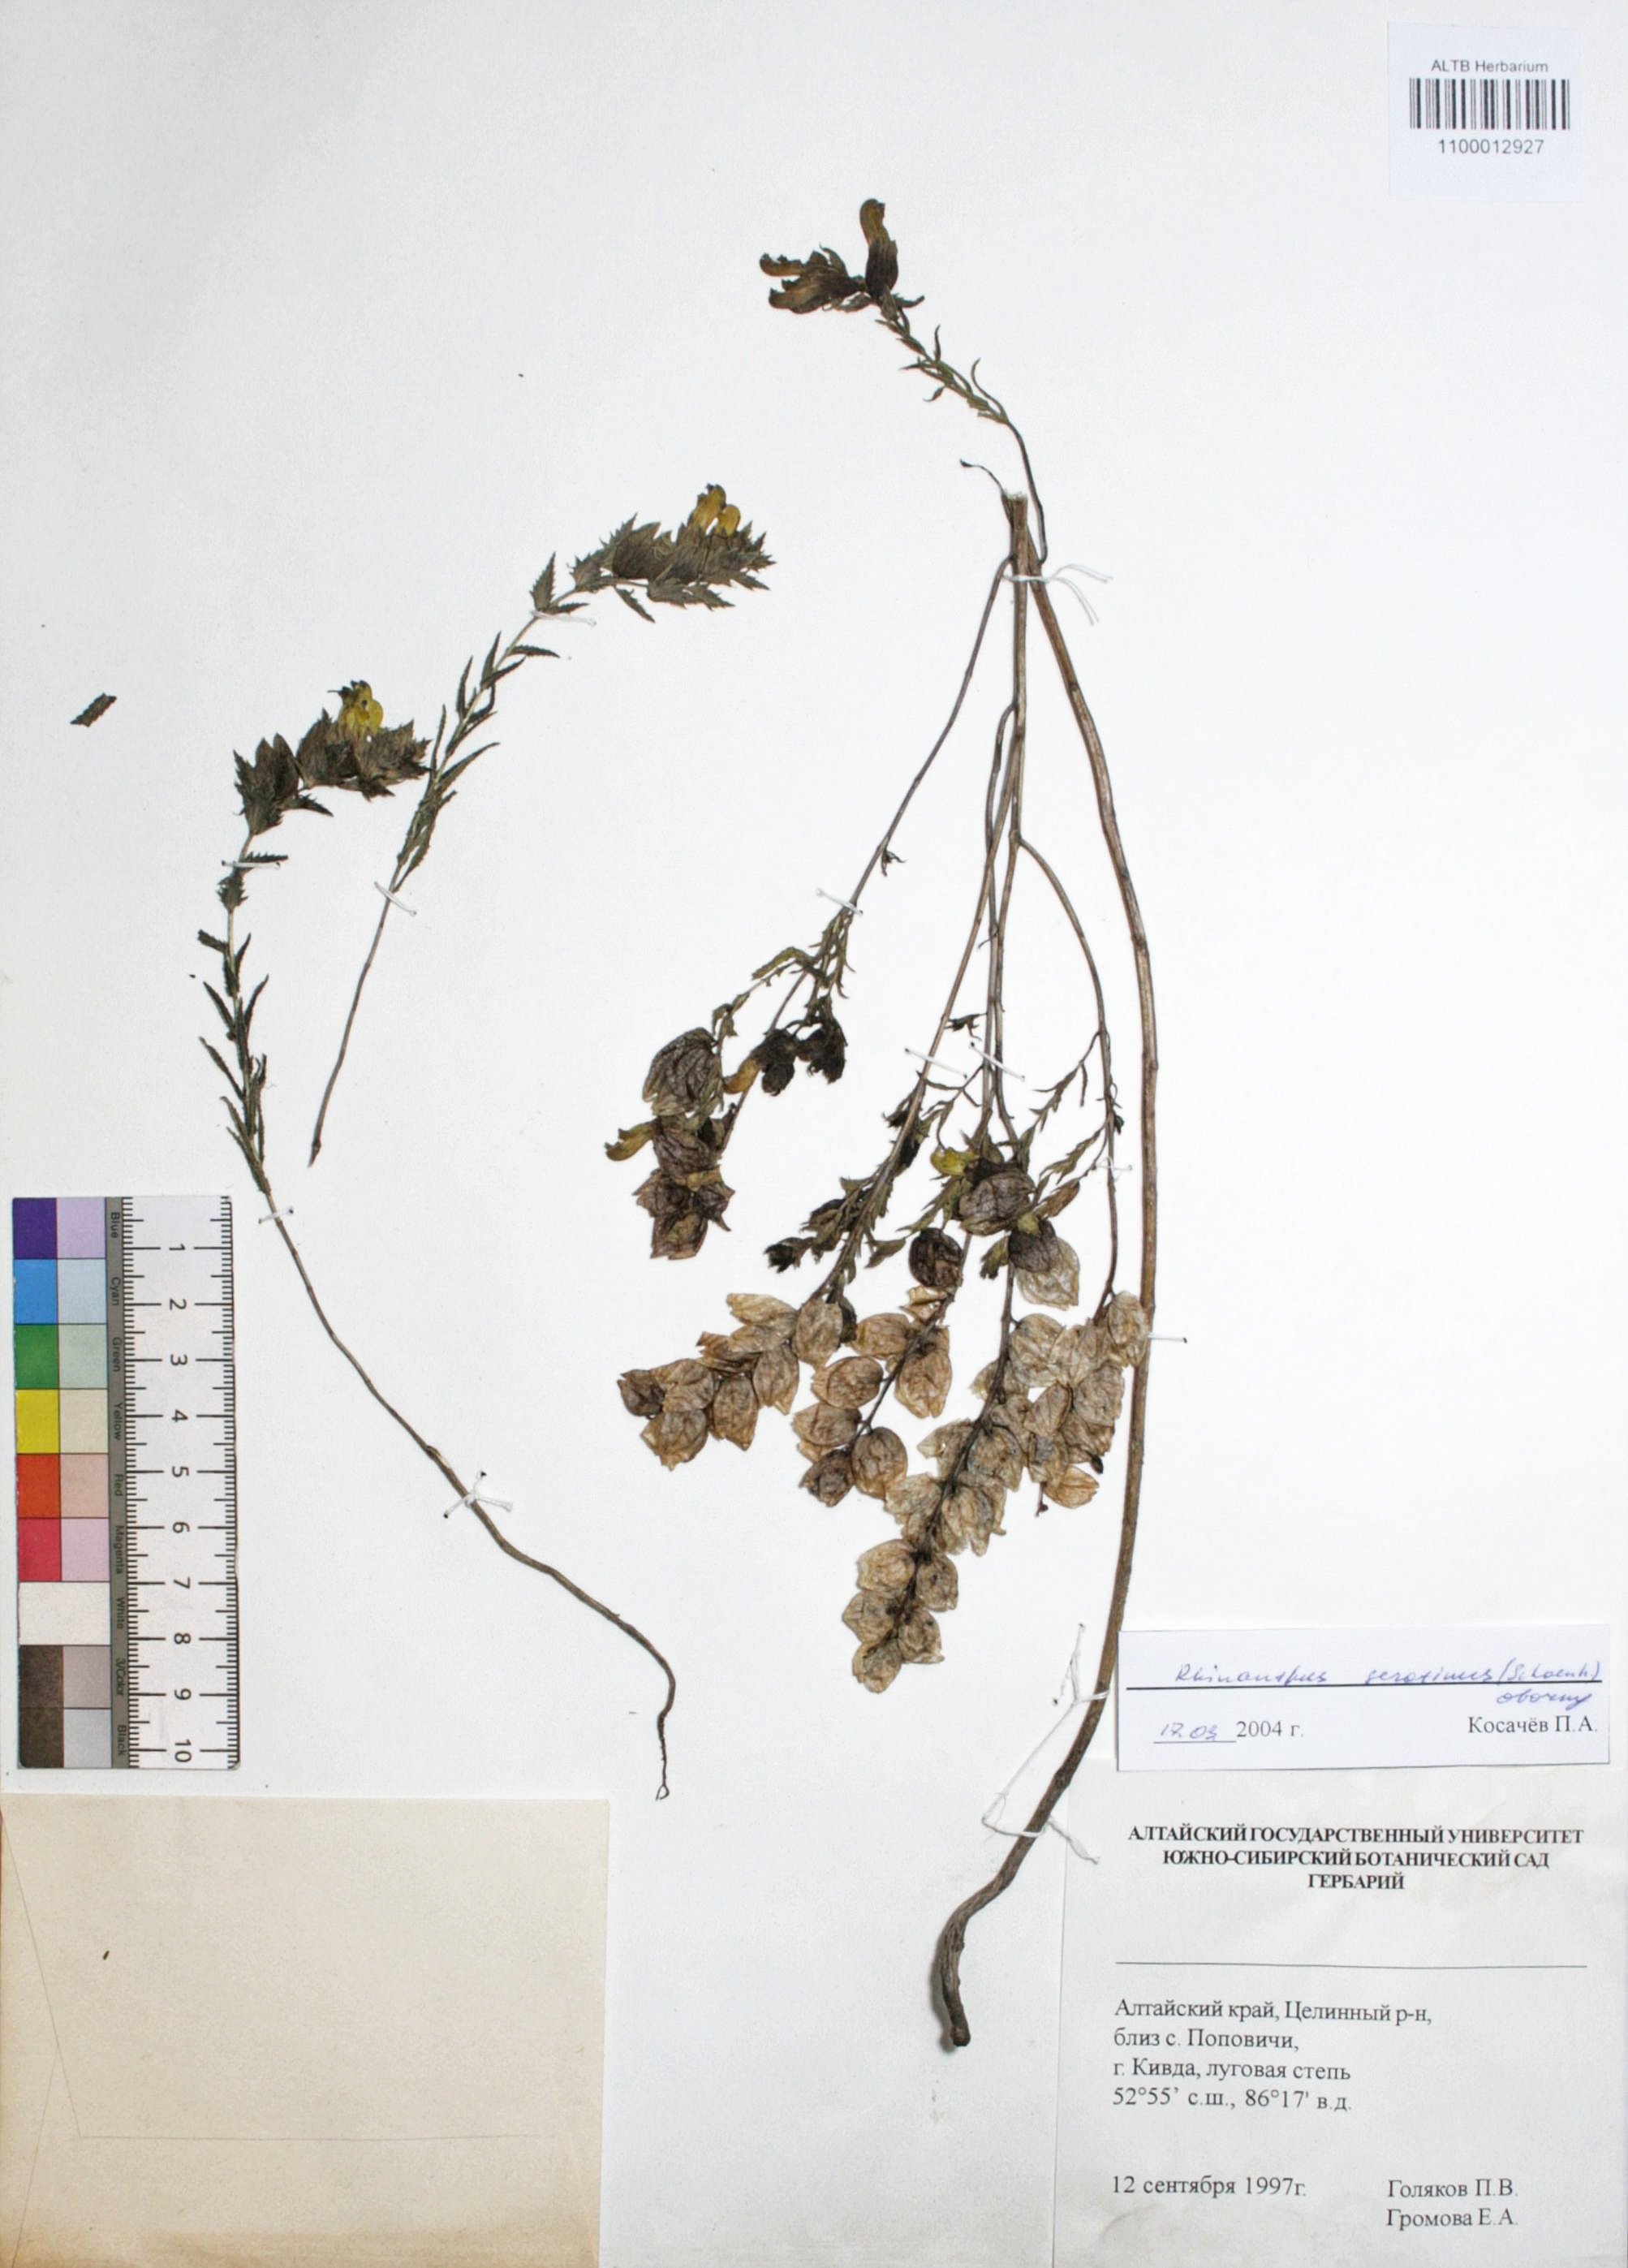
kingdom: Plantae
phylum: Tracheophyta
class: Magnoliopsida
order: Lamiales
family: Orobanchaceae
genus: Rhinanthus
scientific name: Rhinanthus serotinus
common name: Late-flowering yellow rattle
